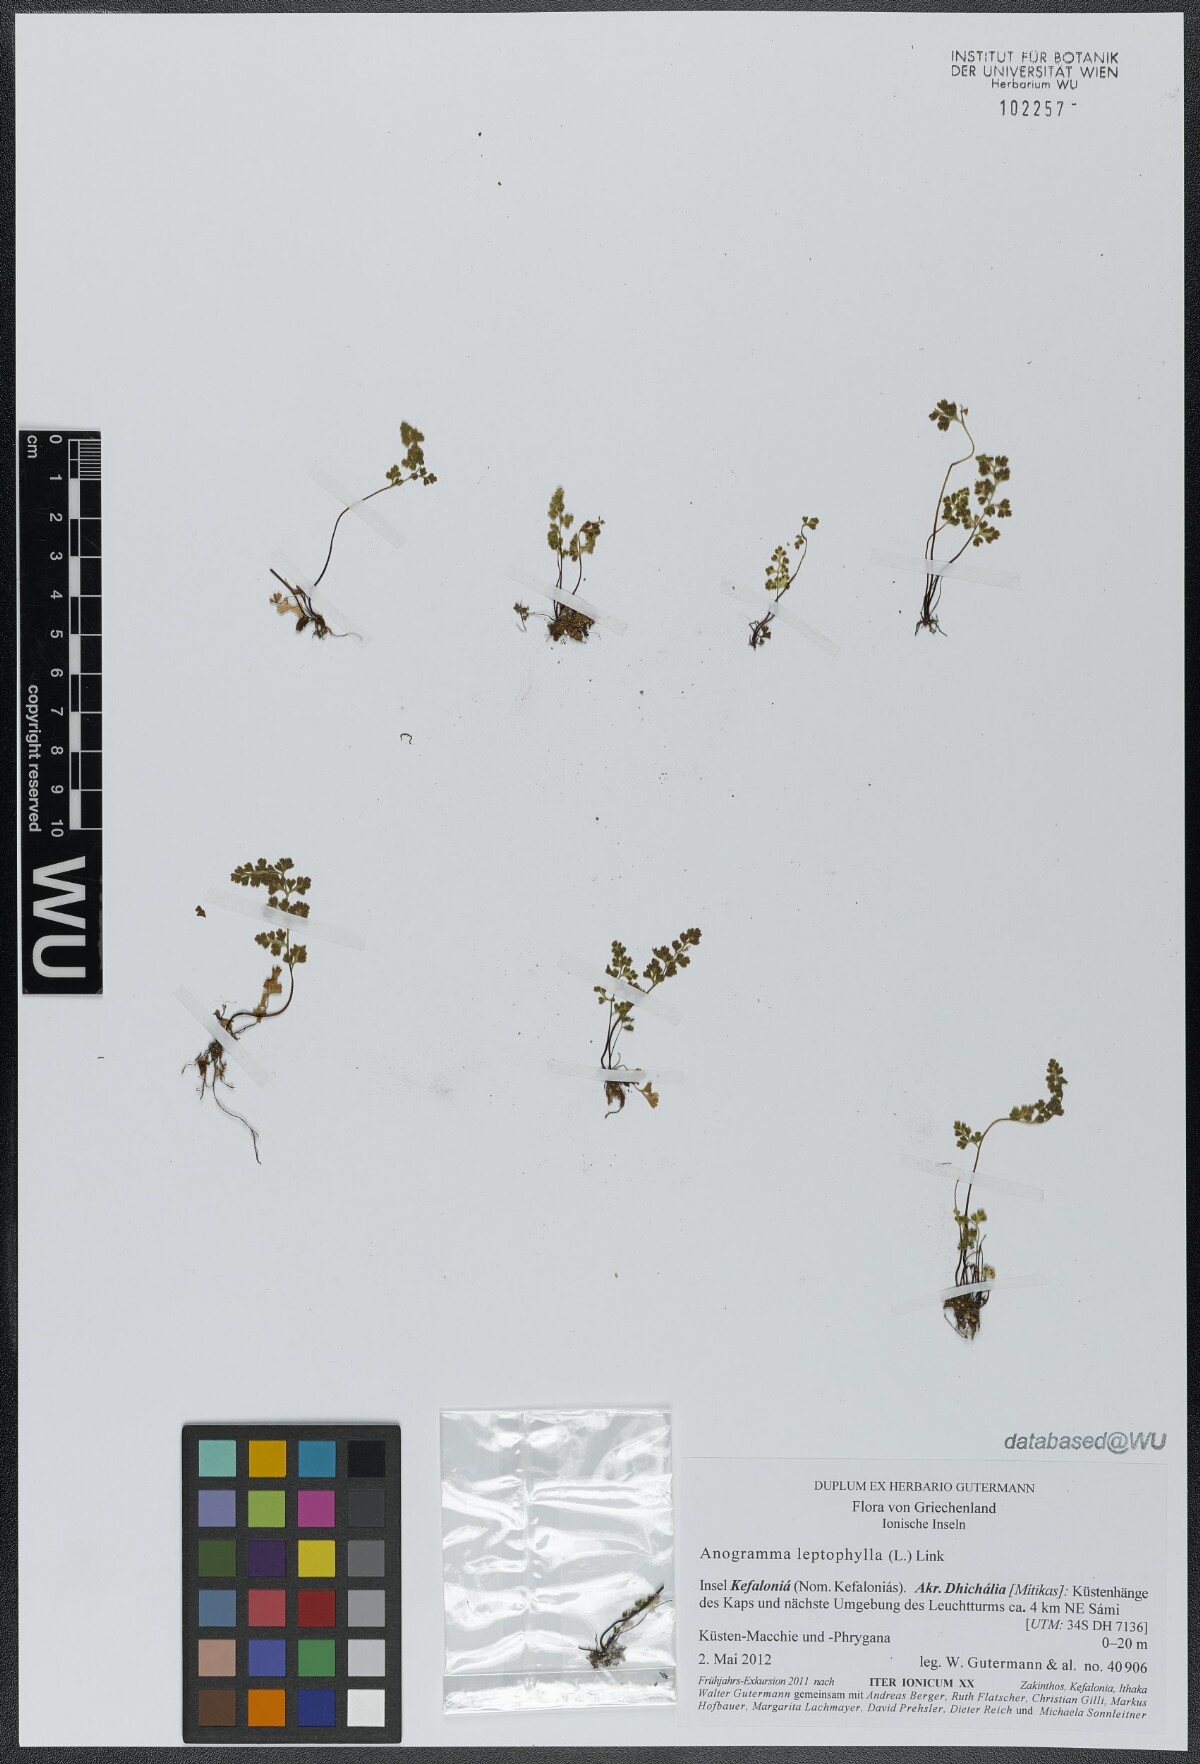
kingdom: Plantae
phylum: Tracheophyta
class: Polypodiopsida
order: Polypodiales
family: Pteridaceae
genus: Anogramma
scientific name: Anogramma leptophylla
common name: Jersey fern
